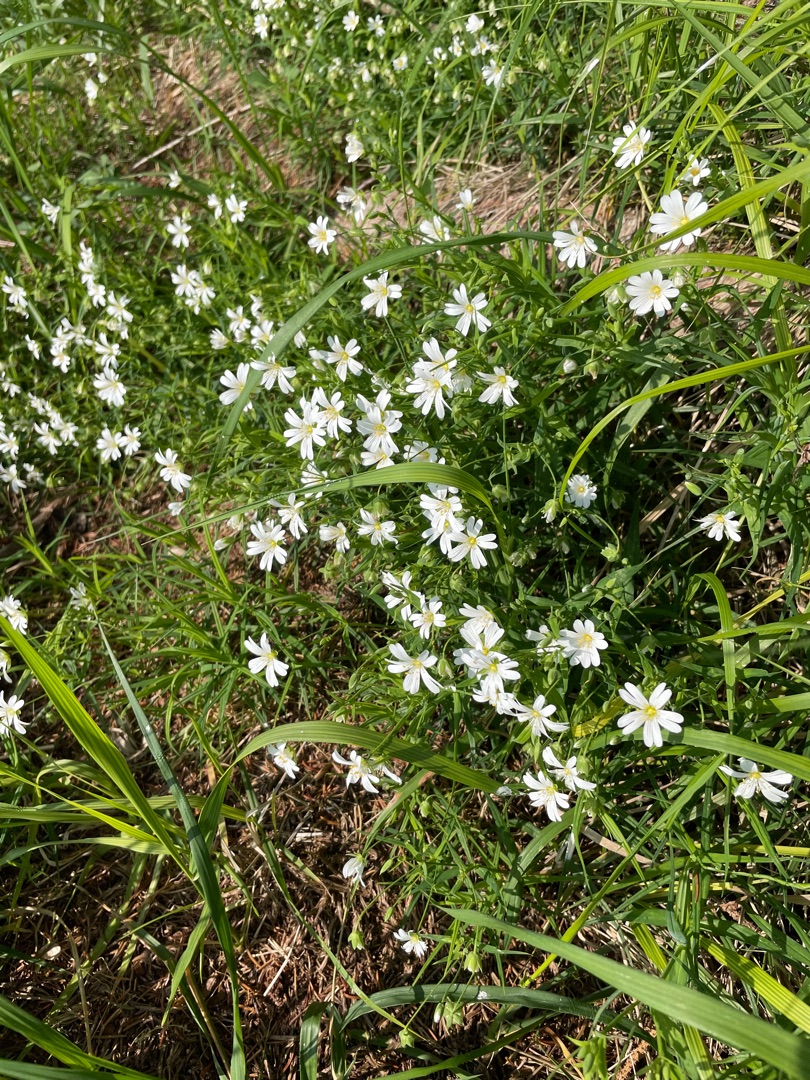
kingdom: Plantae
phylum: Tracheophyta
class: Magnoliopsida
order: Caryophyllales
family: Caryophyllaceae
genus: Rabelera
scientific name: Rabelera holostea
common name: Stor fladstjerne
